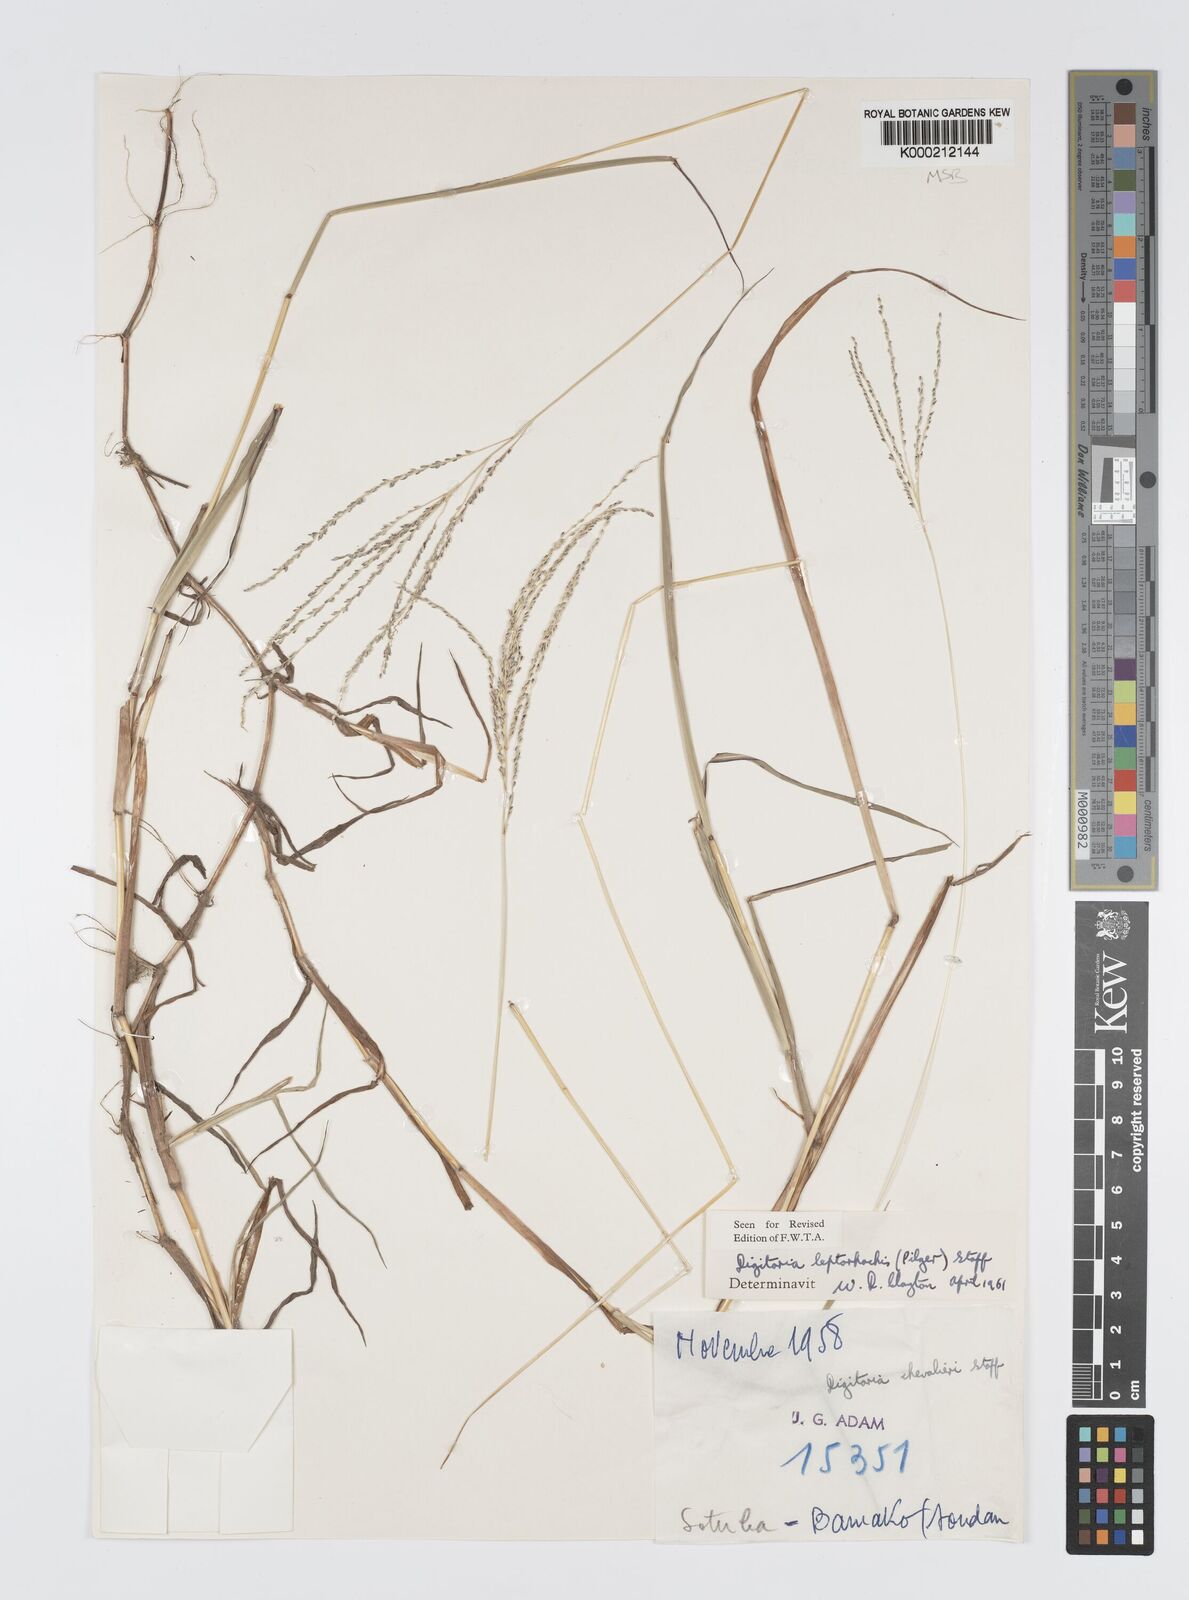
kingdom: Plantae
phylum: Tracheophyta
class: Liliopsida
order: Poales
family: Poaceae
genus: Digitaria
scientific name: Digitaria leptorhachis
